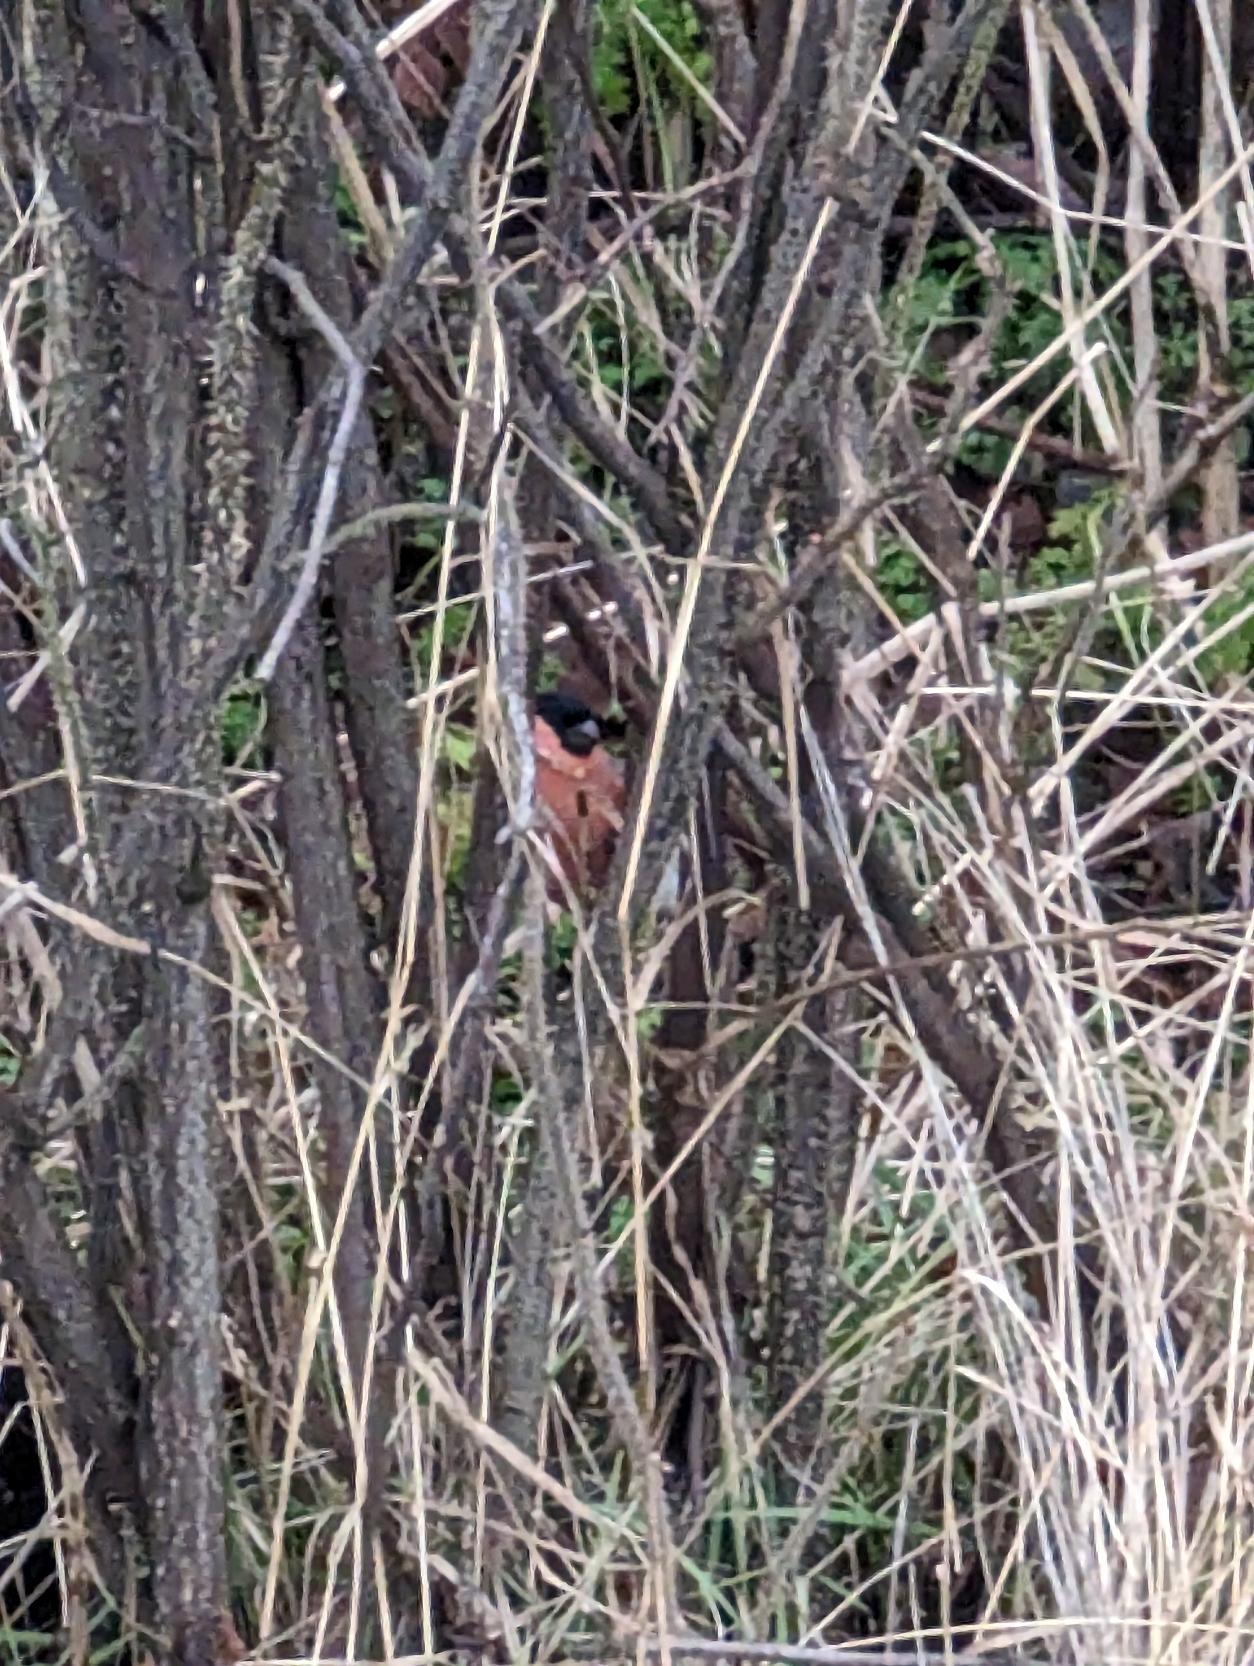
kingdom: Animalia
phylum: Chordata
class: Aves
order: Passeriformes
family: Fringillidae
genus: Pyrrhula
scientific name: Pyrrhula pyrrhula
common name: Dompap
